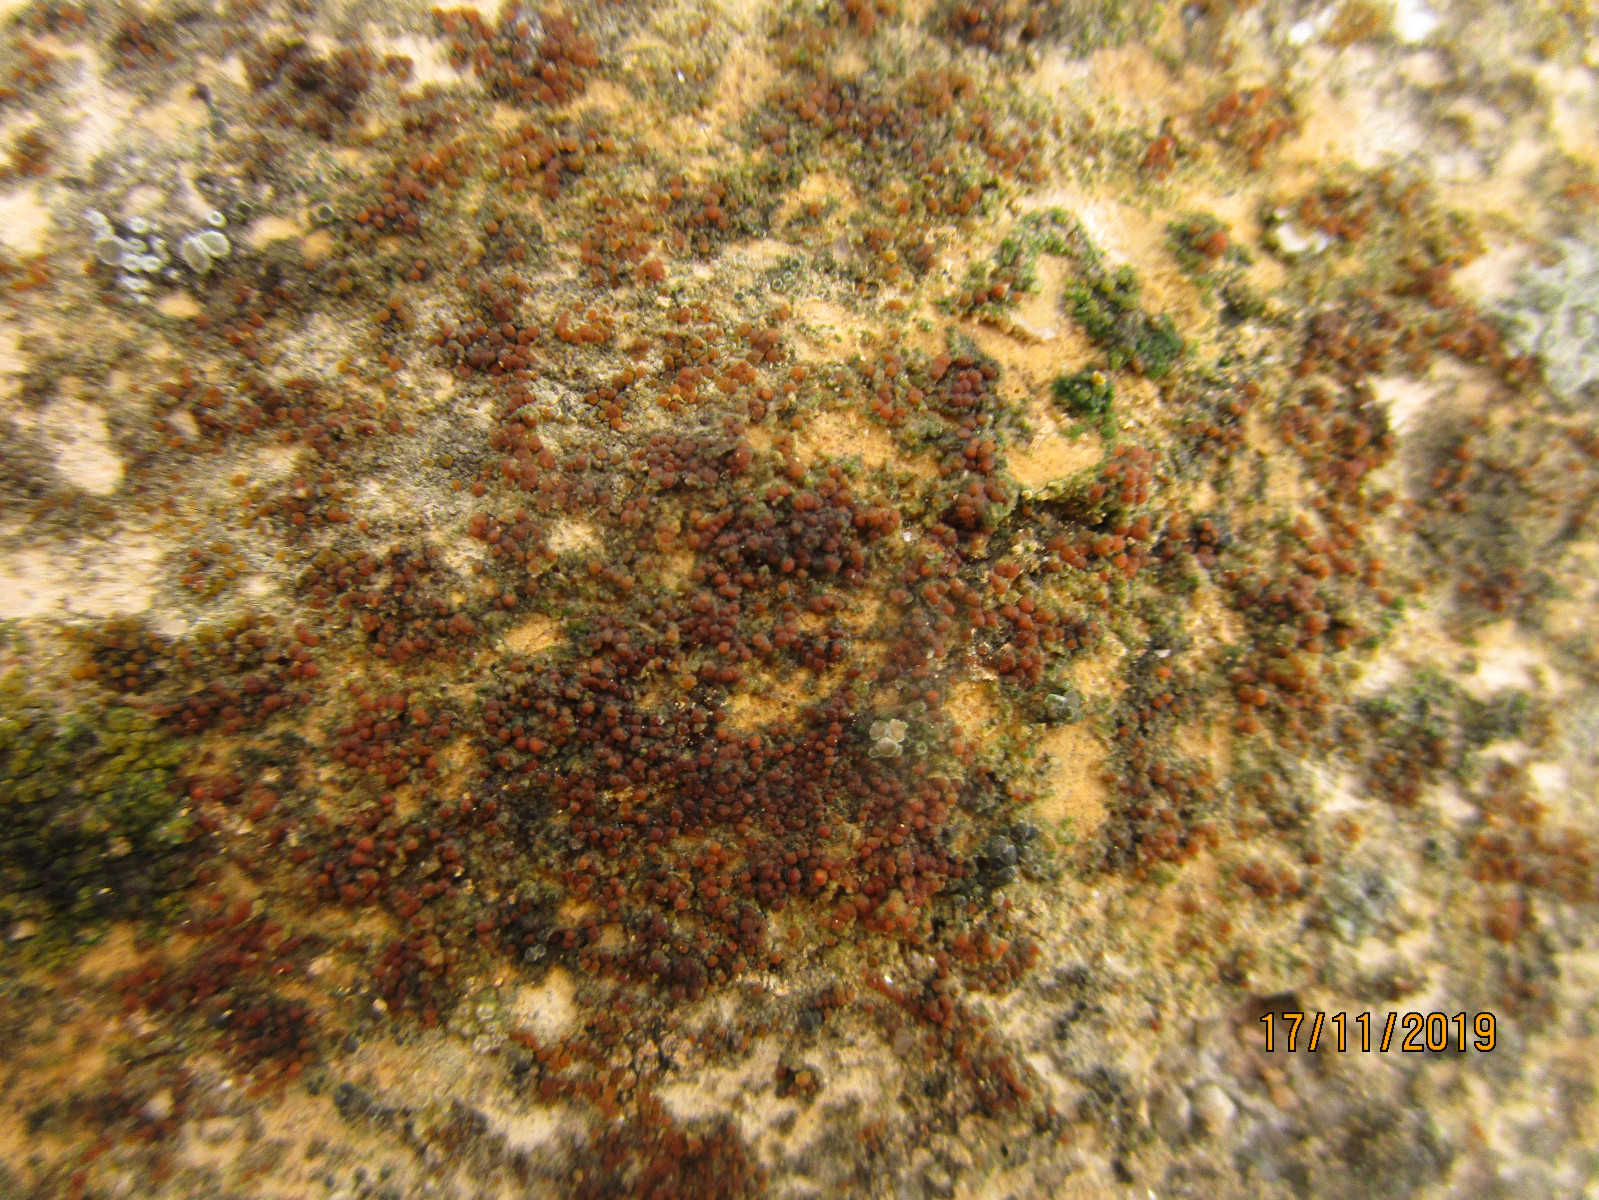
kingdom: Fungi
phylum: Ascomycota
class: Lecanoromycetes
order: Teloschistales
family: Teloschistaceae
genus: Athallia
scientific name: Athallia
